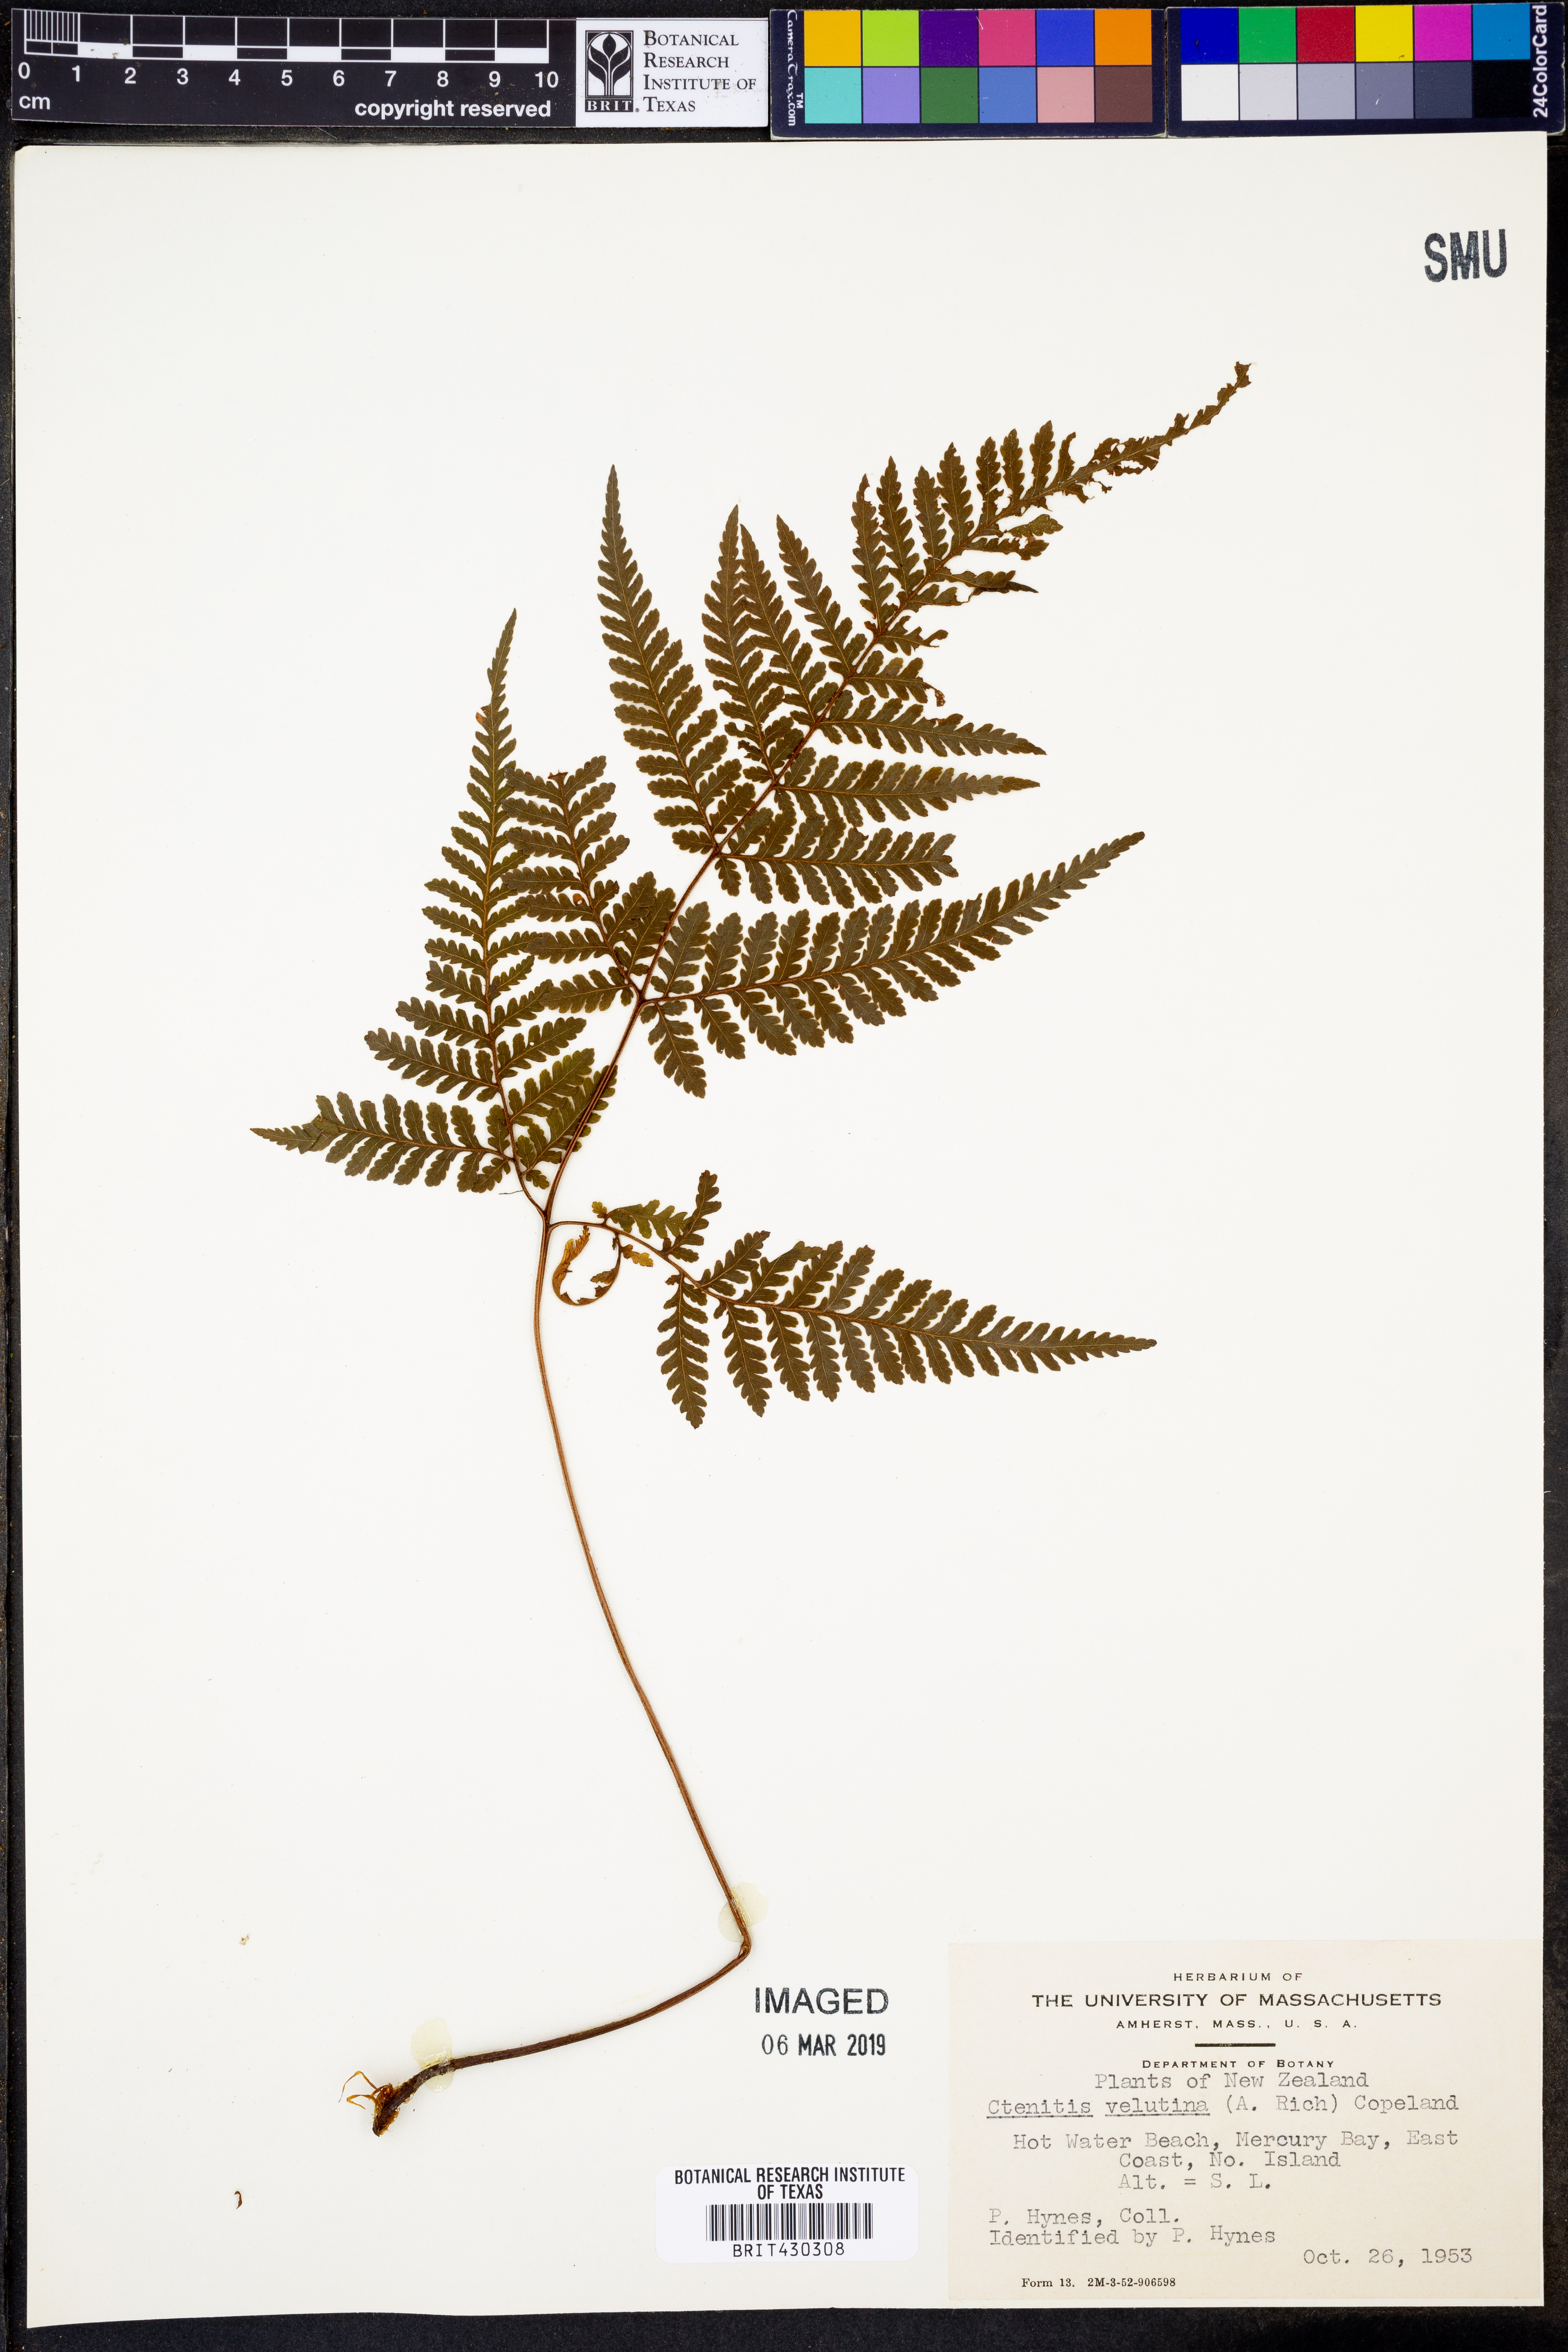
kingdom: Plantae
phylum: Tracheophyta
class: Polypodiopsida
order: Polypodiales
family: Dryopteridaceae
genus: Lastreopsis
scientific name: Lastreopsis velutina
